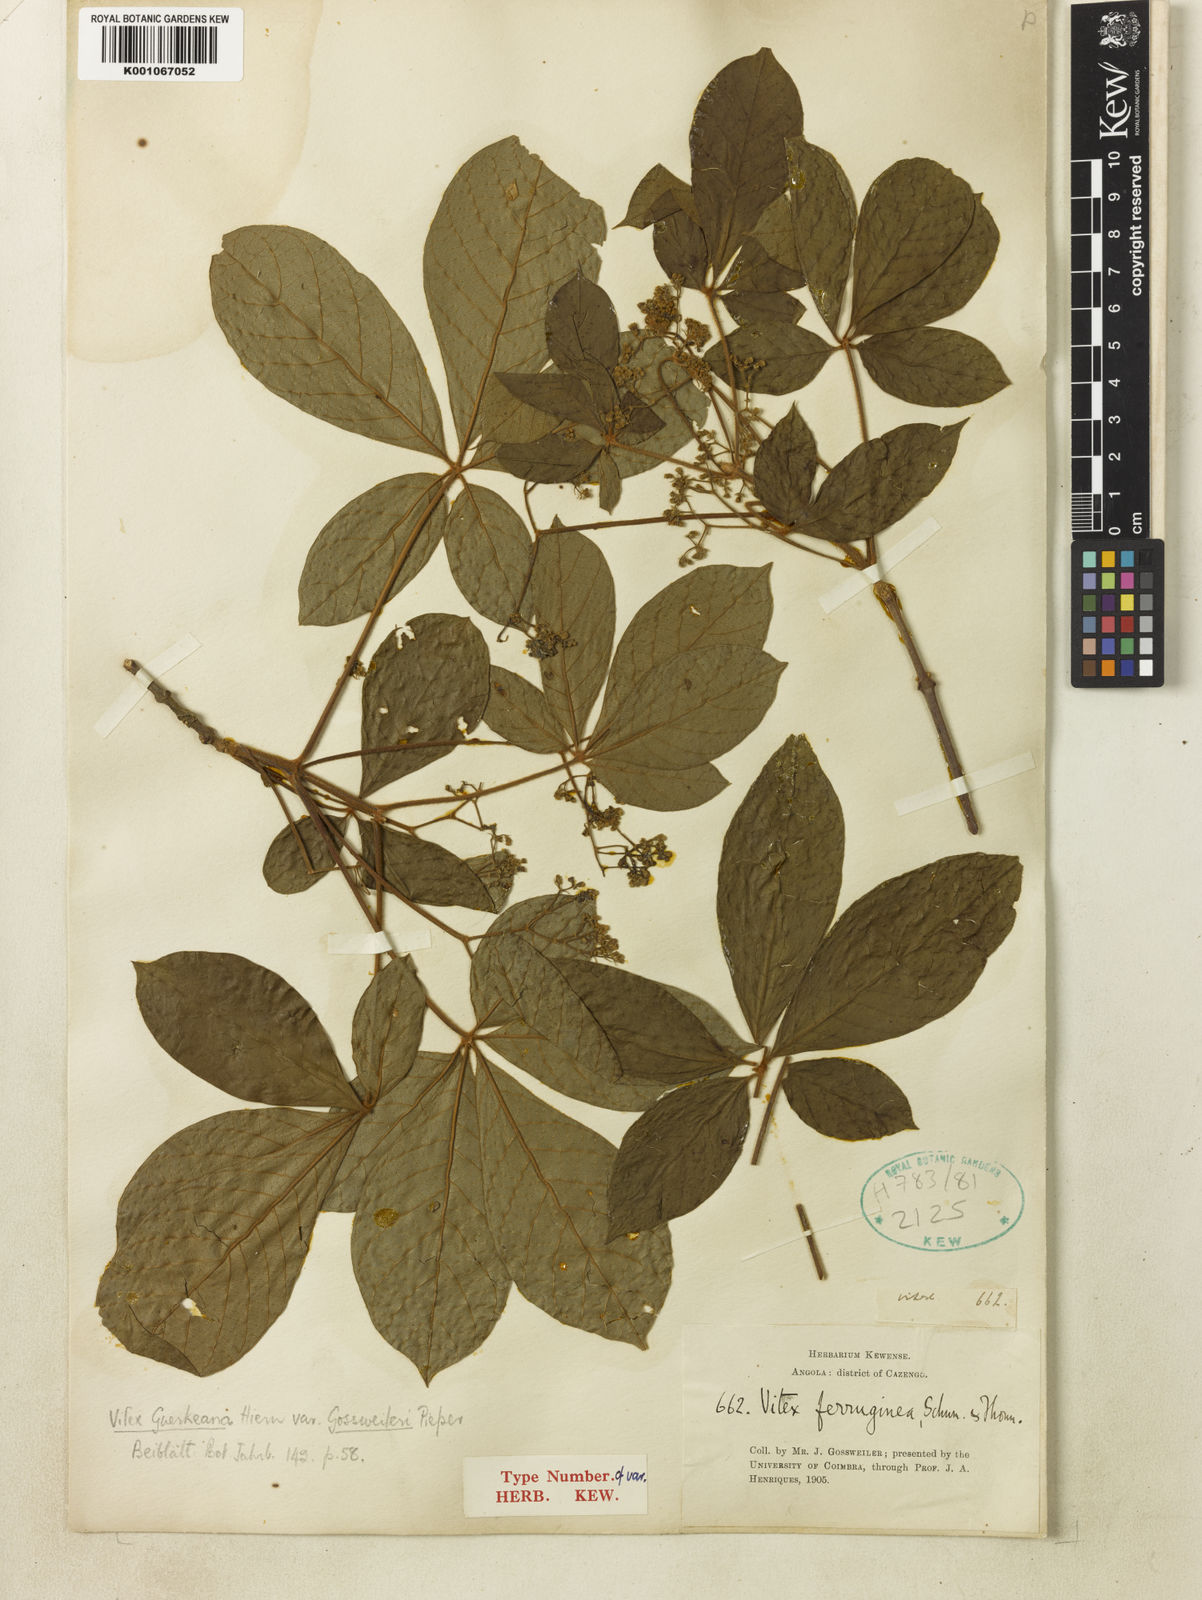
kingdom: Plantae
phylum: Tracheophyta
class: Magnoliopsida
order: Lamiales
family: Lamiaceae
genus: Vitex
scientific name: Vitex ferruginea
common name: Plum fingerleaf
